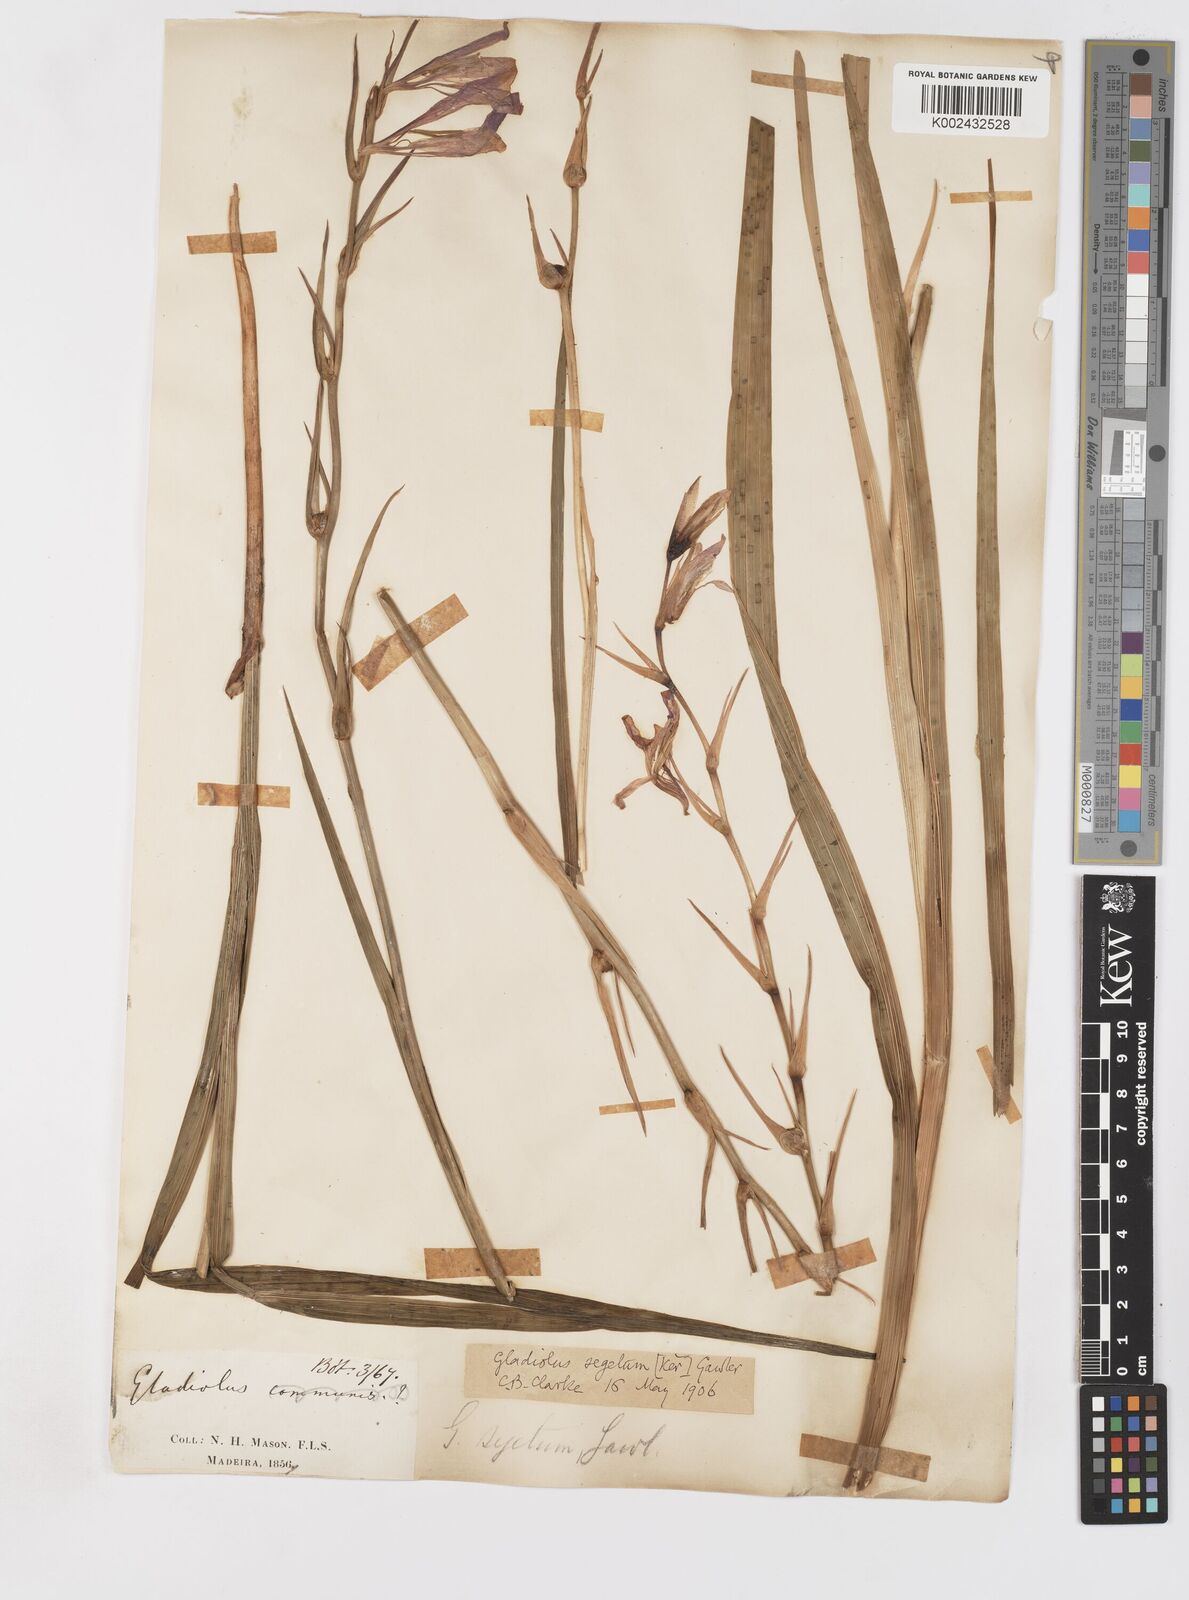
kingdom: Plantae
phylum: Tracheophyta
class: Liliopsida
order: Asparagales
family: Iridaceae
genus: Gladiolus
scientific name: Gladiolus italicus
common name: Field gladiolus
